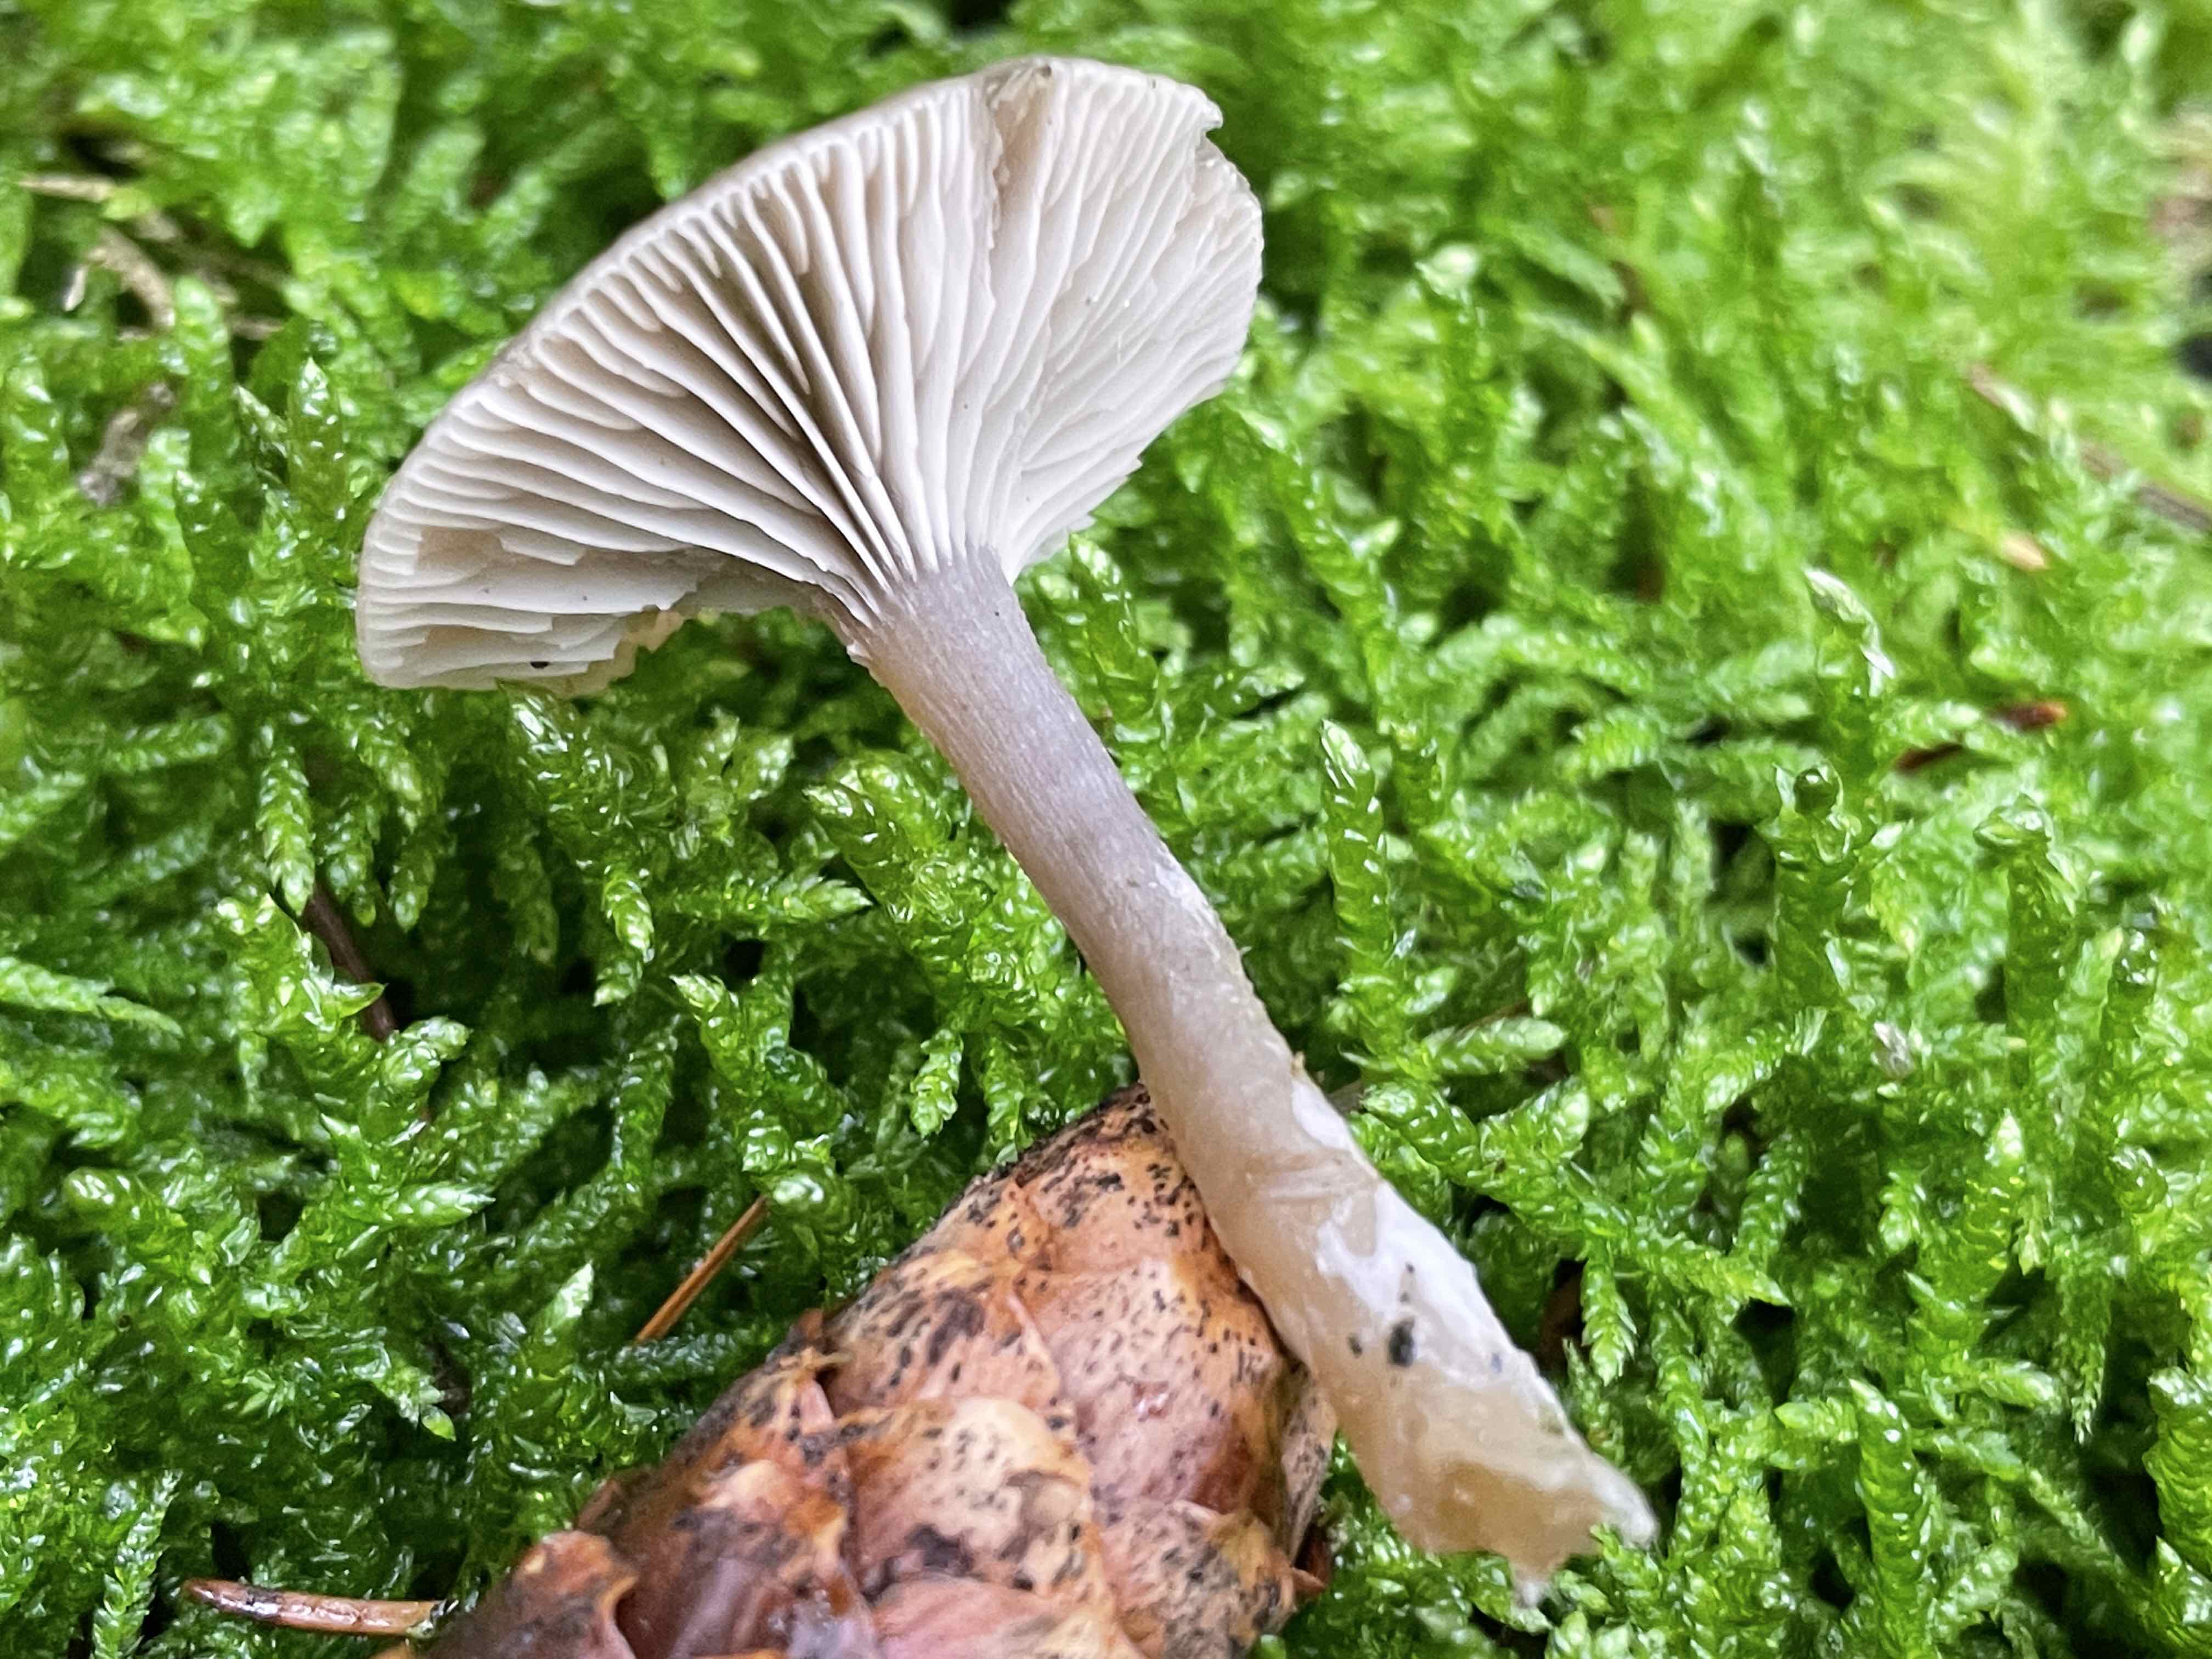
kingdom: Fungi
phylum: Basidiomycota
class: Agaricomycetes
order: Agaricales
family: Tricholomataceae
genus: Clitocybe
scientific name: Clitocybe vibecina
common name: randstribet tragthat
